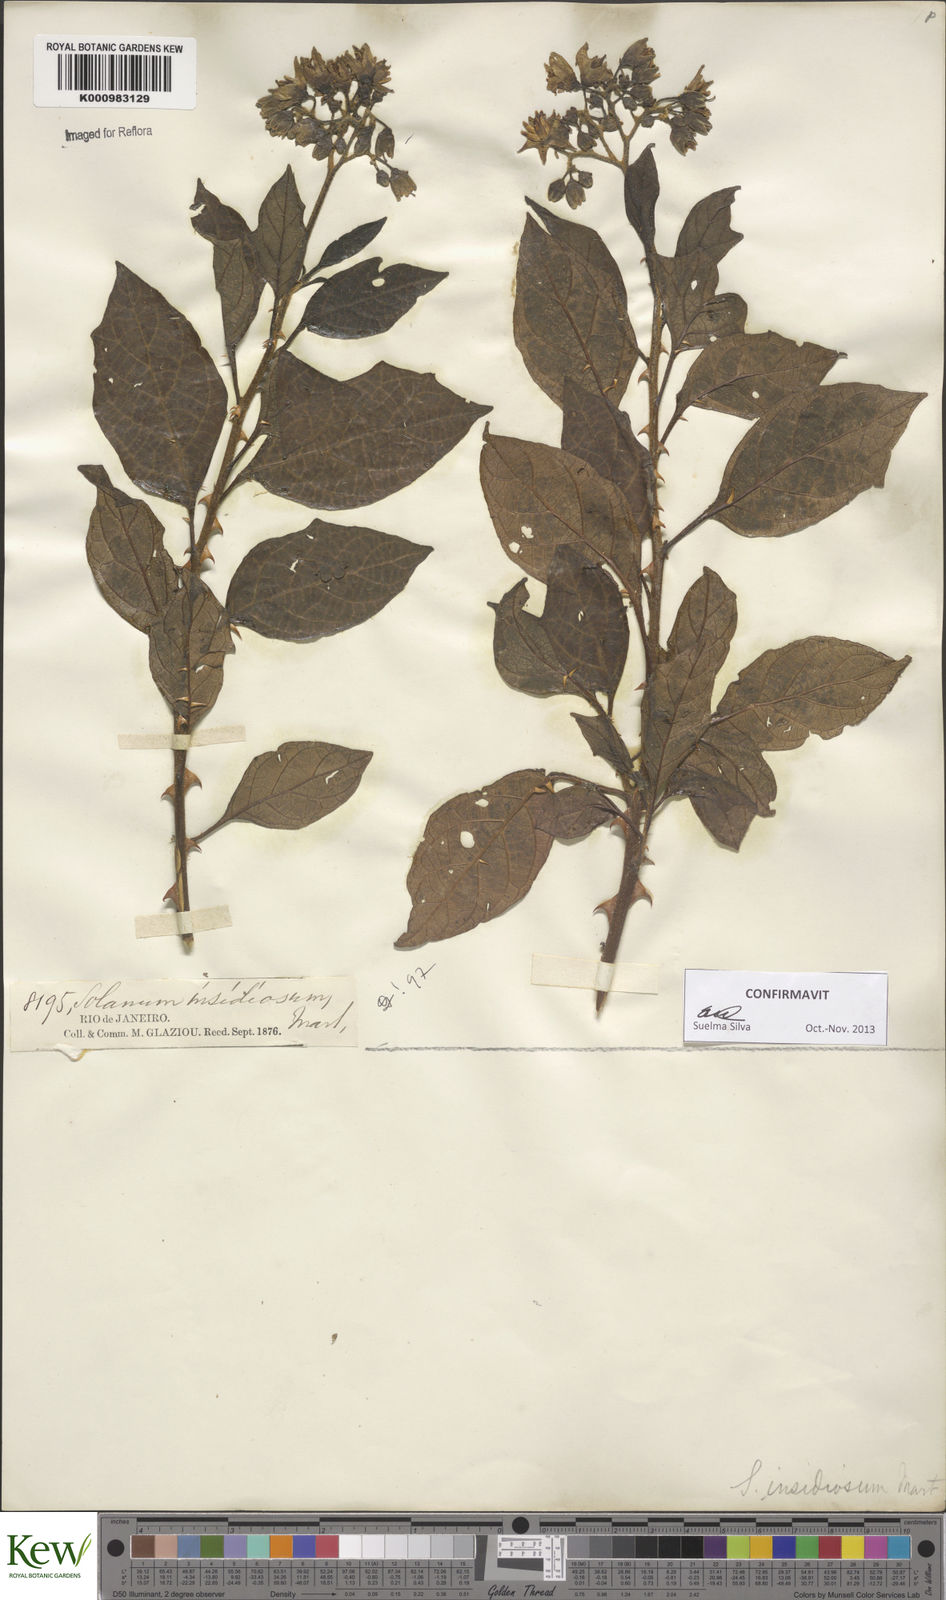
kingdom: Plantae
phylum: Tracheophyta
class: Magnoliopsida
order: Solanales
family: Solanaceae
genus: Solanum
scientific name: Solanum insidiosum
